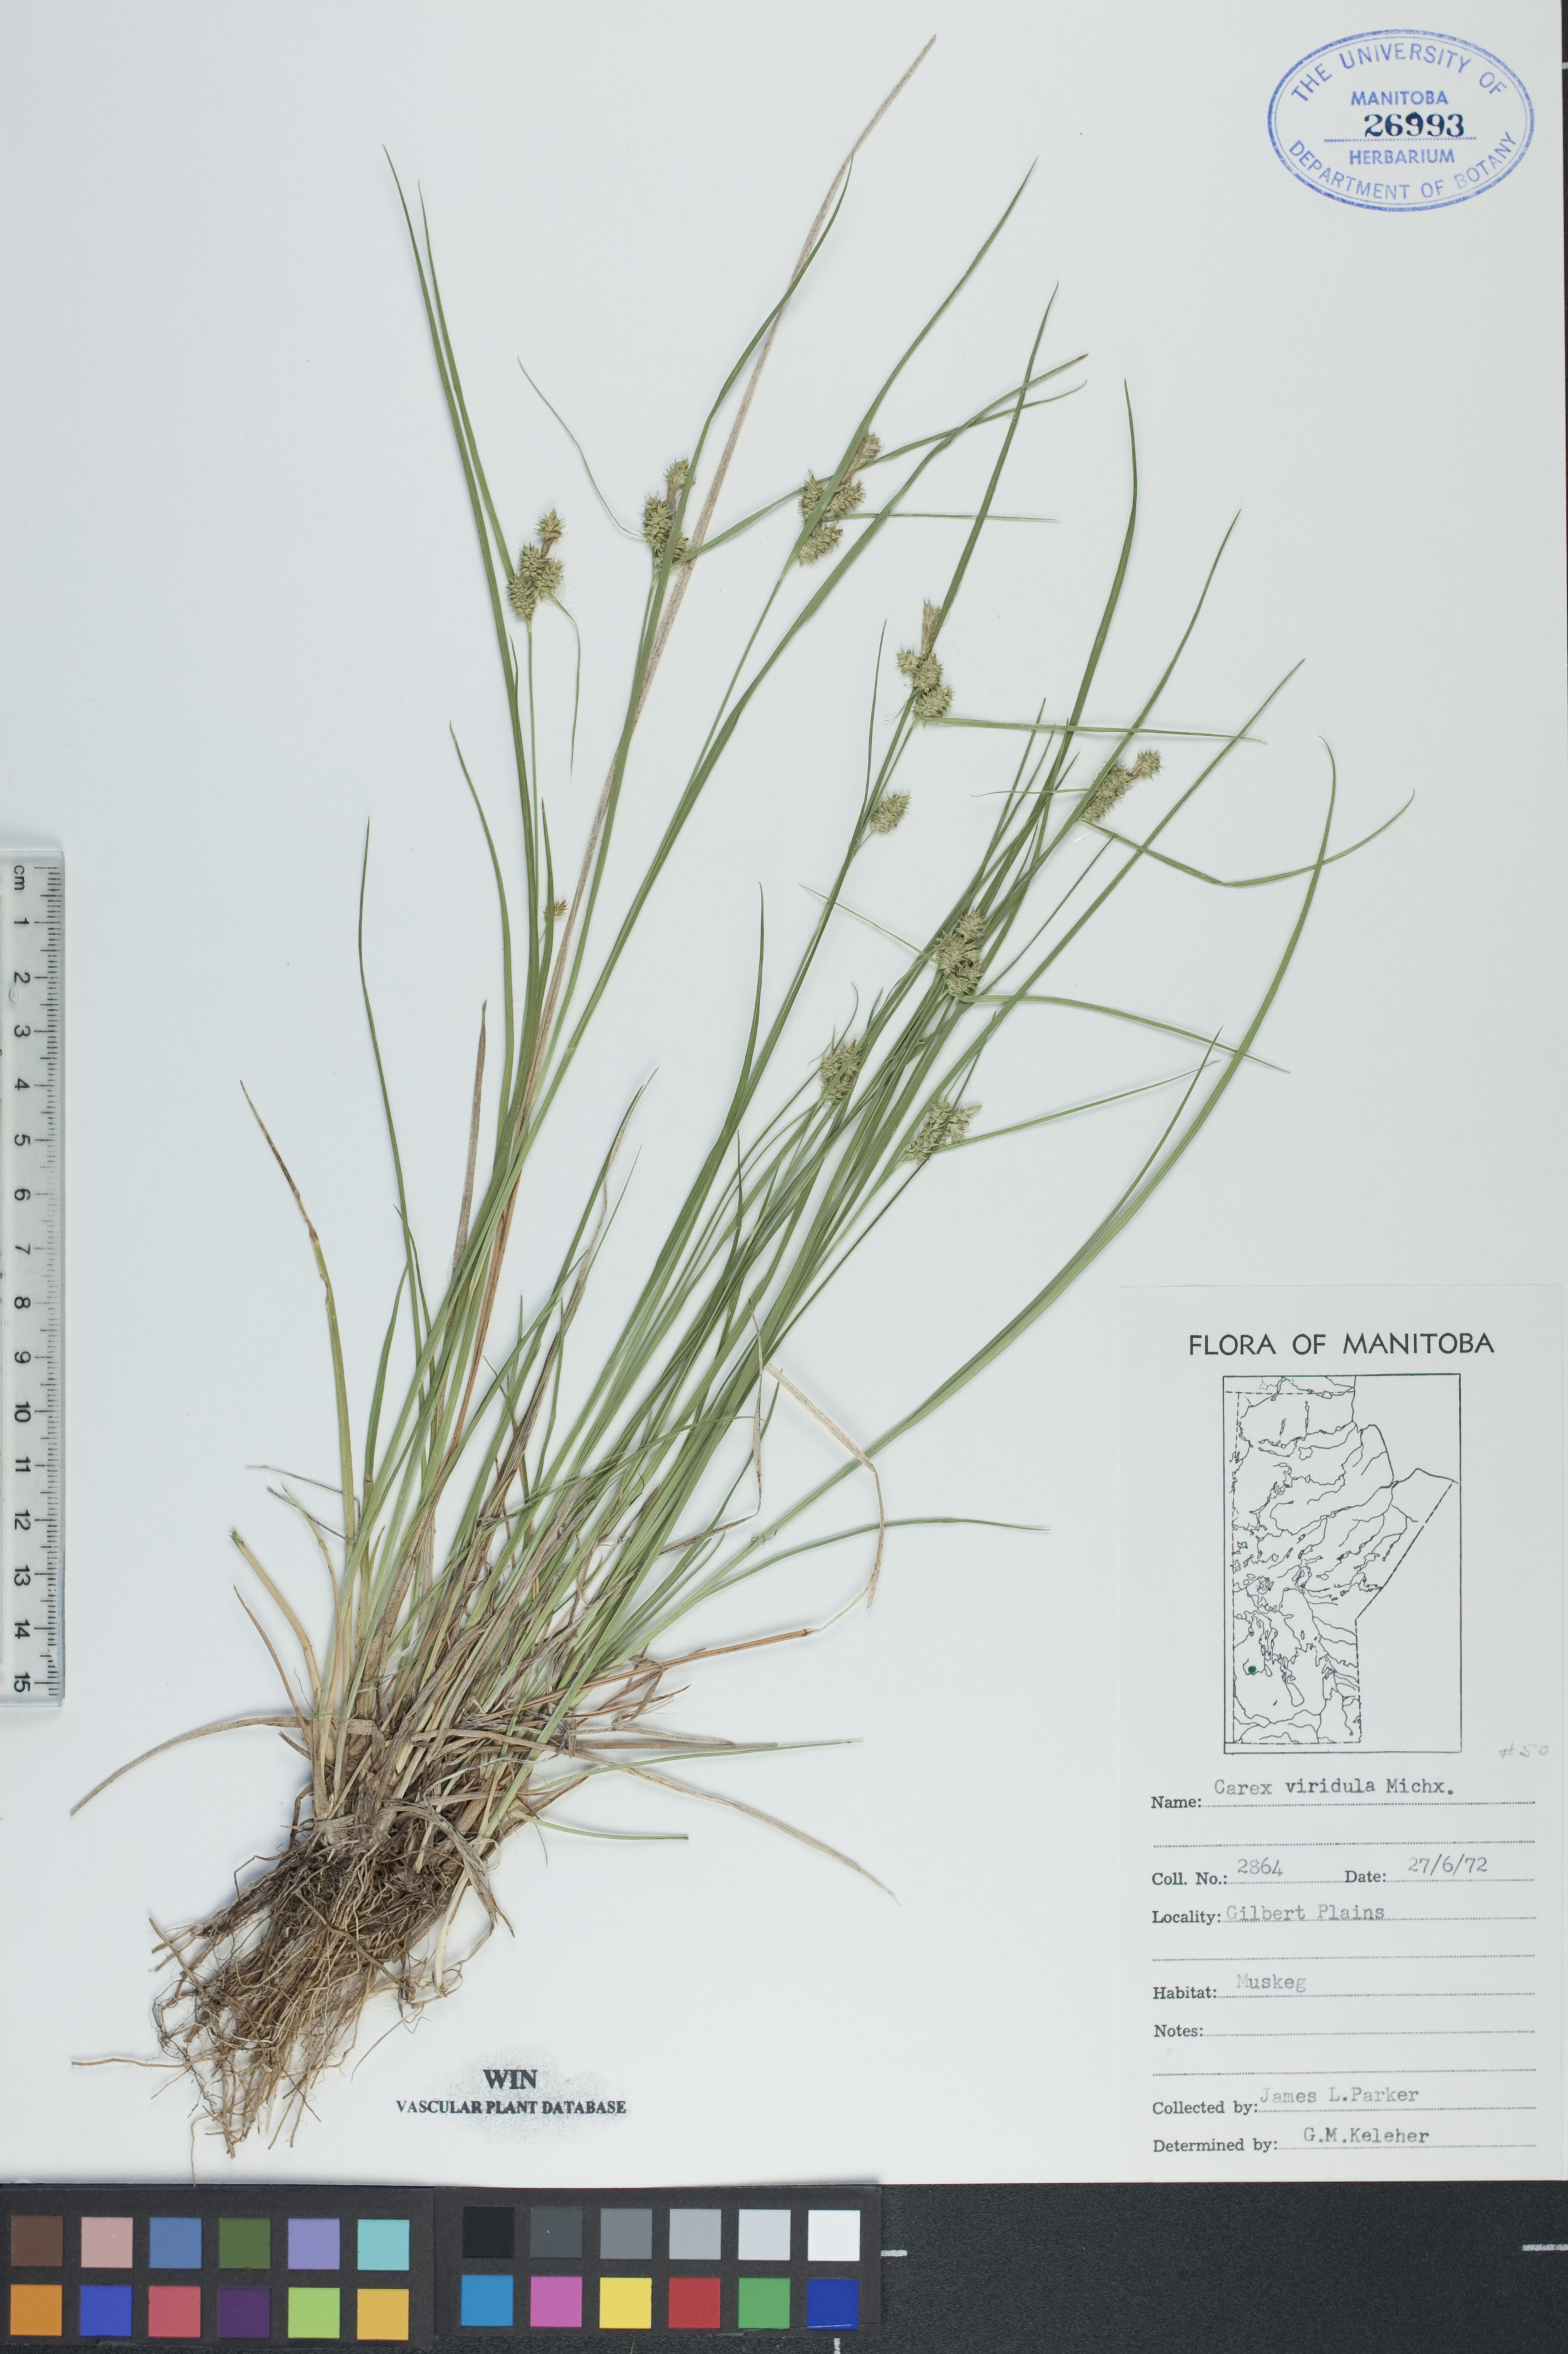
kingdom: Plantae
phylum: Tracheophyta
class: Liliopsida
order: Poales
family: Cyperaceae
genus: Carex
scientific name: Carex oederi
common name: Common & small-fruited yellow-sedge
